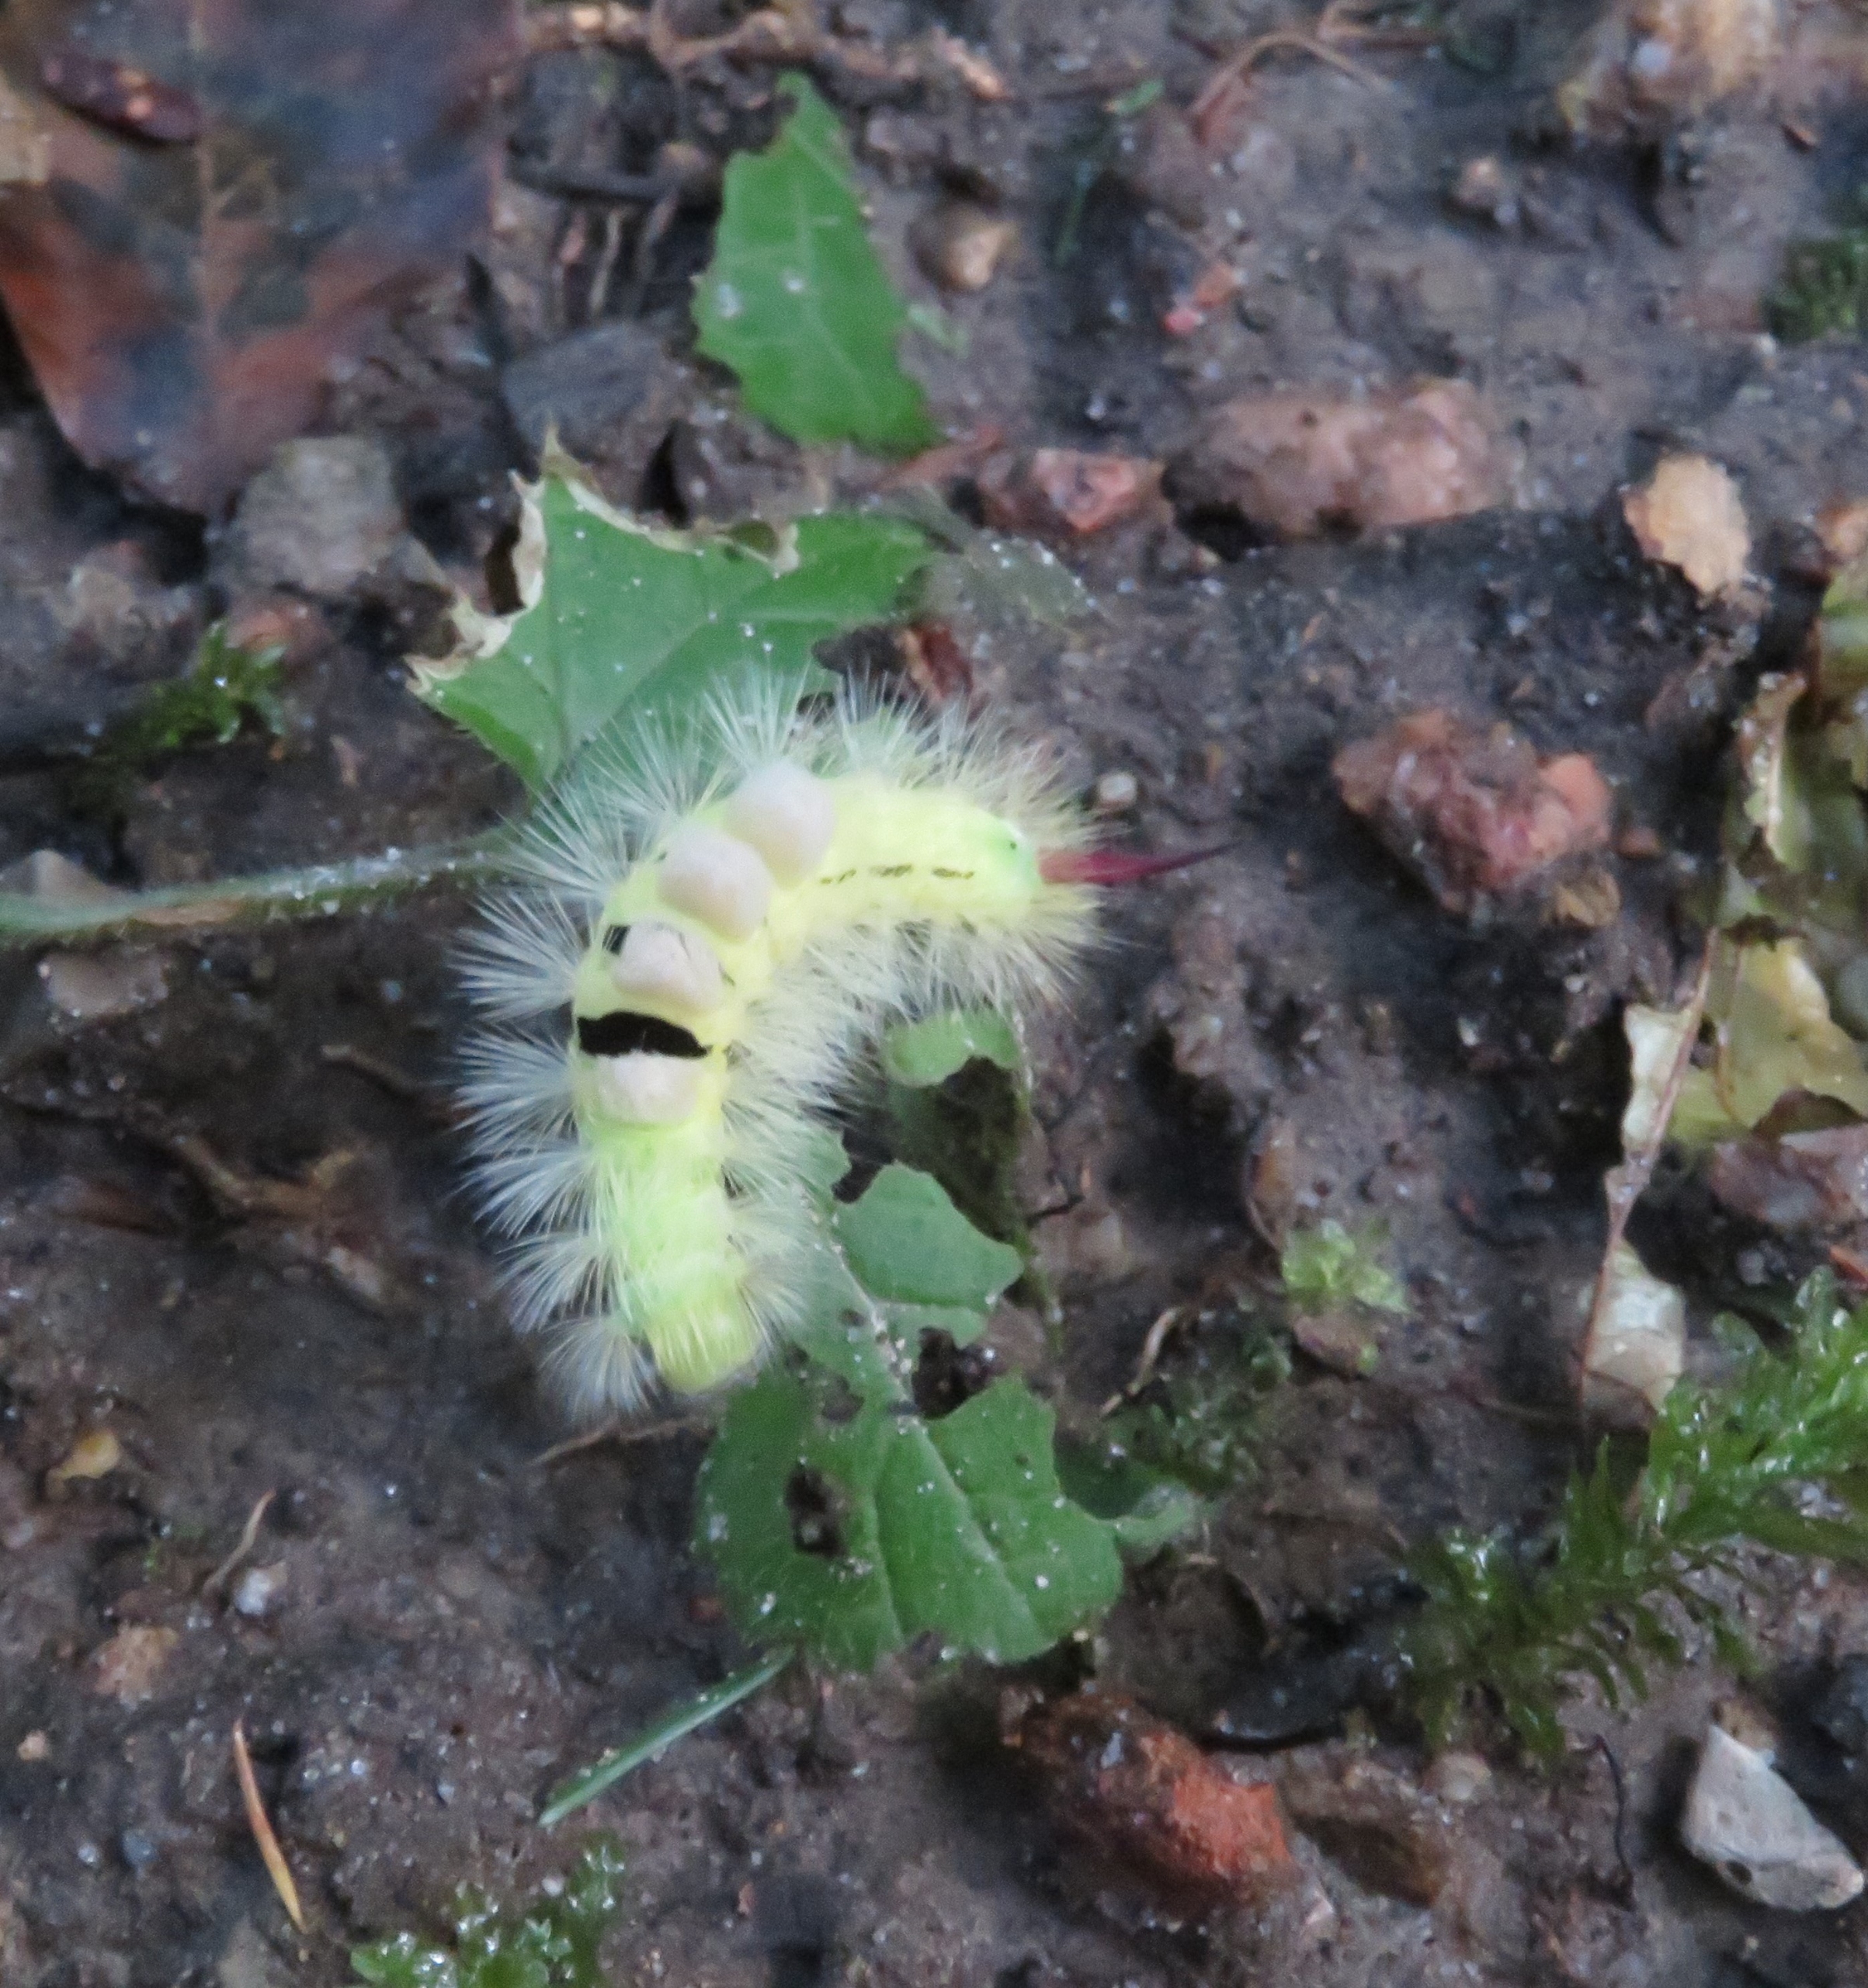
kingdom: Animalia
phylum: Arthropoda
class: Insecta
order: Lepidoptera
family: Erebidae
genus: Calliteara
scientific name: Calliteara pudibunda
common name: Bøgenonne
